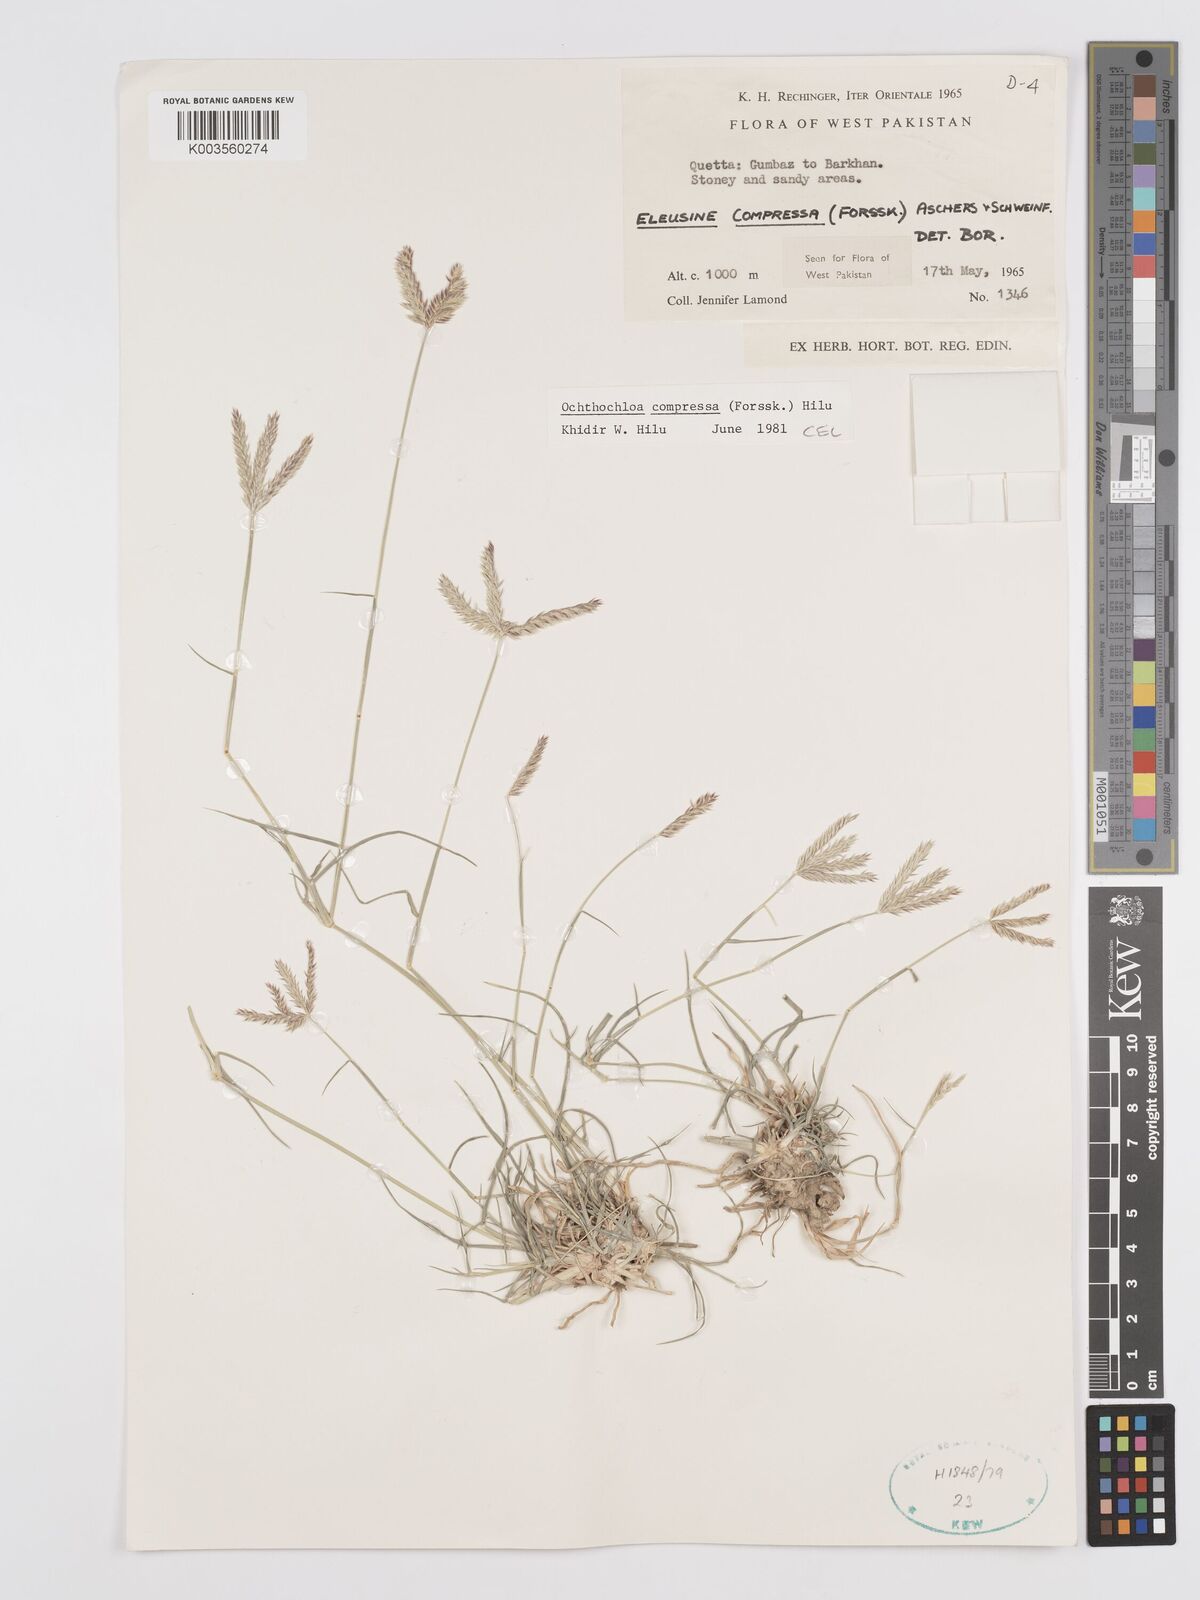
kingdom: Plantae
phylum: Tracheophyta
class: Liliopsida
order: Poales
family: Poaceae
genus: Chloris
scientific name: Chloris flagellifera
